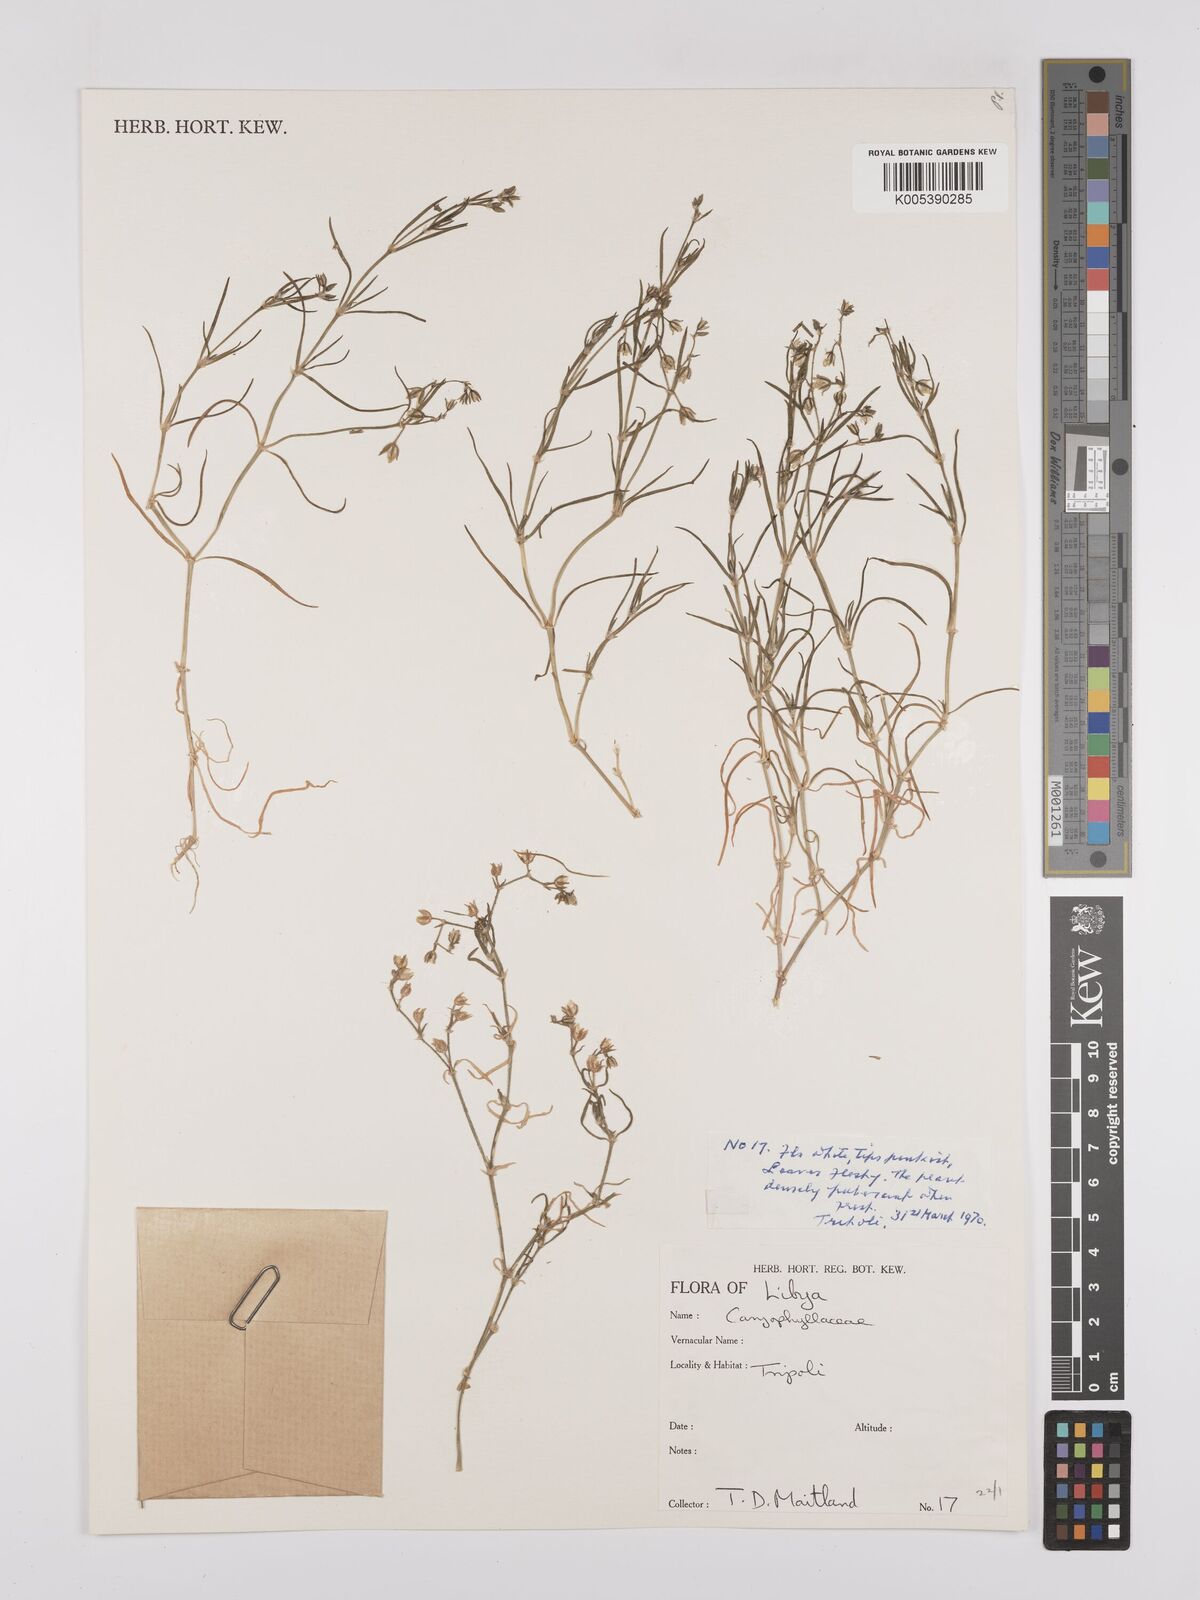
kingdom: Plantae
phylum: Tracheophyta
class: Magnoliopsida
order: Caryophyllales
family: Caryophyllaceae
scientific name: Caryophyllaceae
